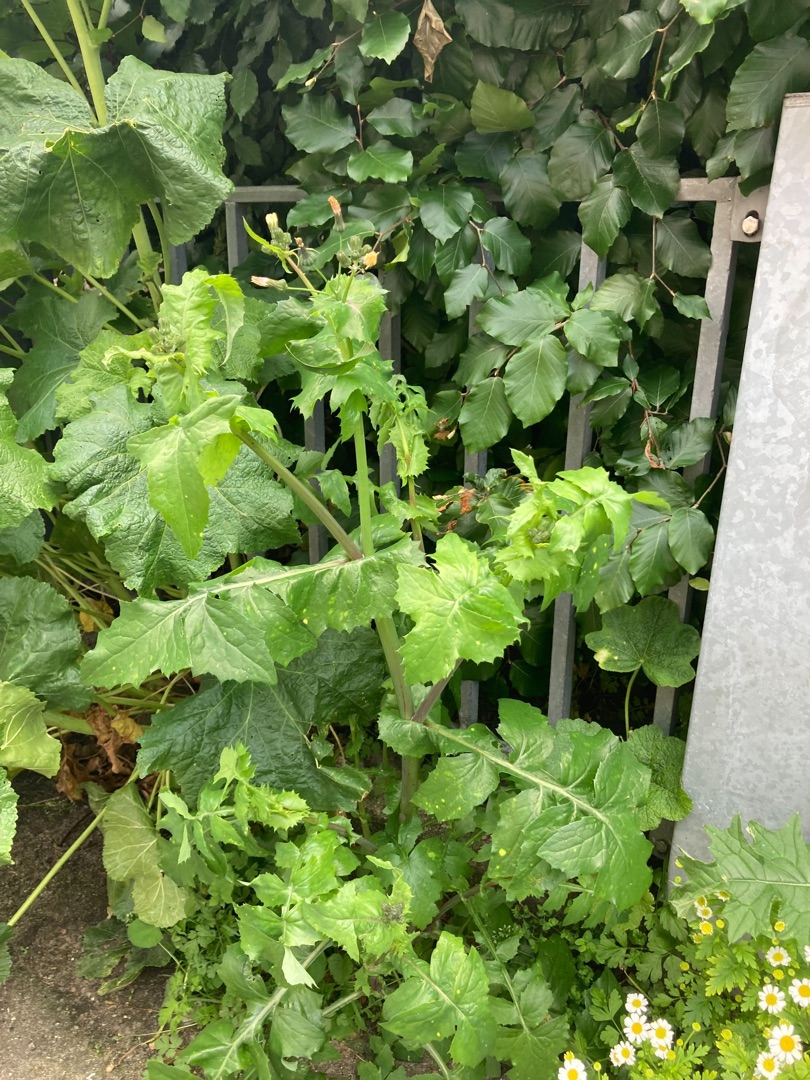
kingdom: Plantae
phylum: Tracheophyta
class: Magnoliopsida
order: Asterales
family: Asteraceae
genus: Sonchus
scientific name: Sonchus oleraceus
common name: Almindelig svinemælk
